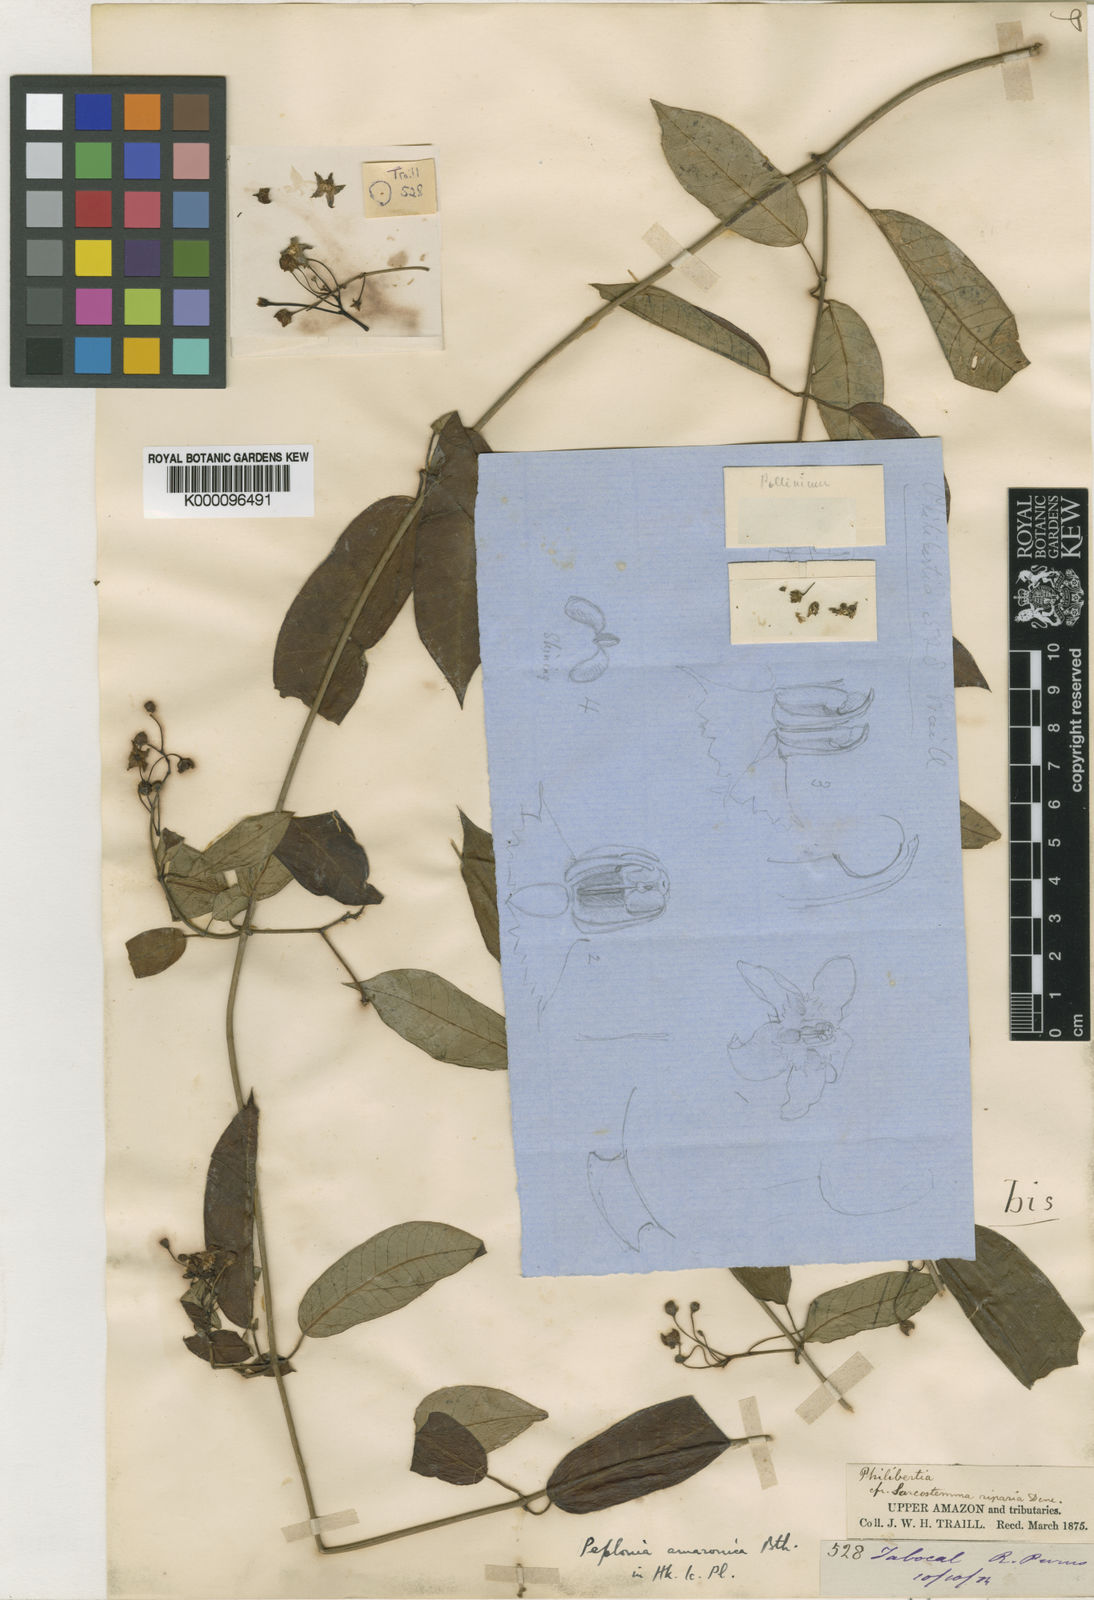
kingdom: Plantae
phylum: Tracheophyta
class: Magnoliopsida
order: Gentianales
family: Apocynaceae
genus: Blepharodon
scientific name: Blepharodon amazonicum
